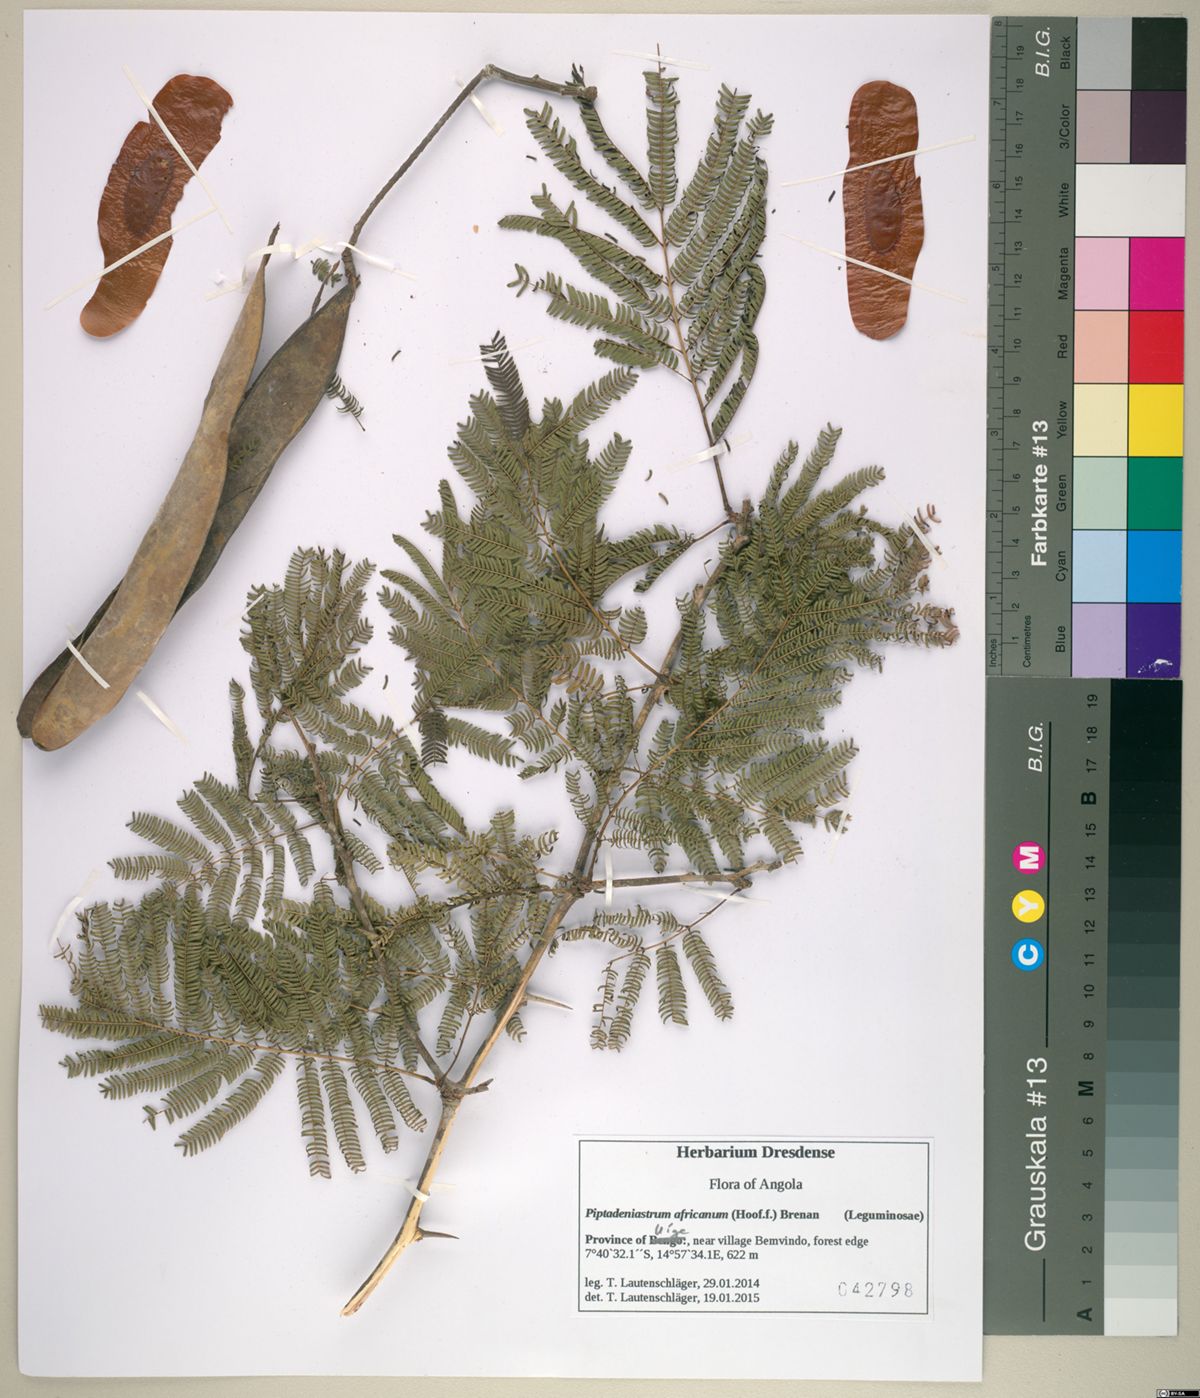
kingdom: Plantae
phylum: Tracheophyta
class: Magnoliopsida
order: Fabales
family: Fabaceae
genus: Piptadeniastrum
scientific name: Piptadeniastrum africanum
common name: African greenheart
